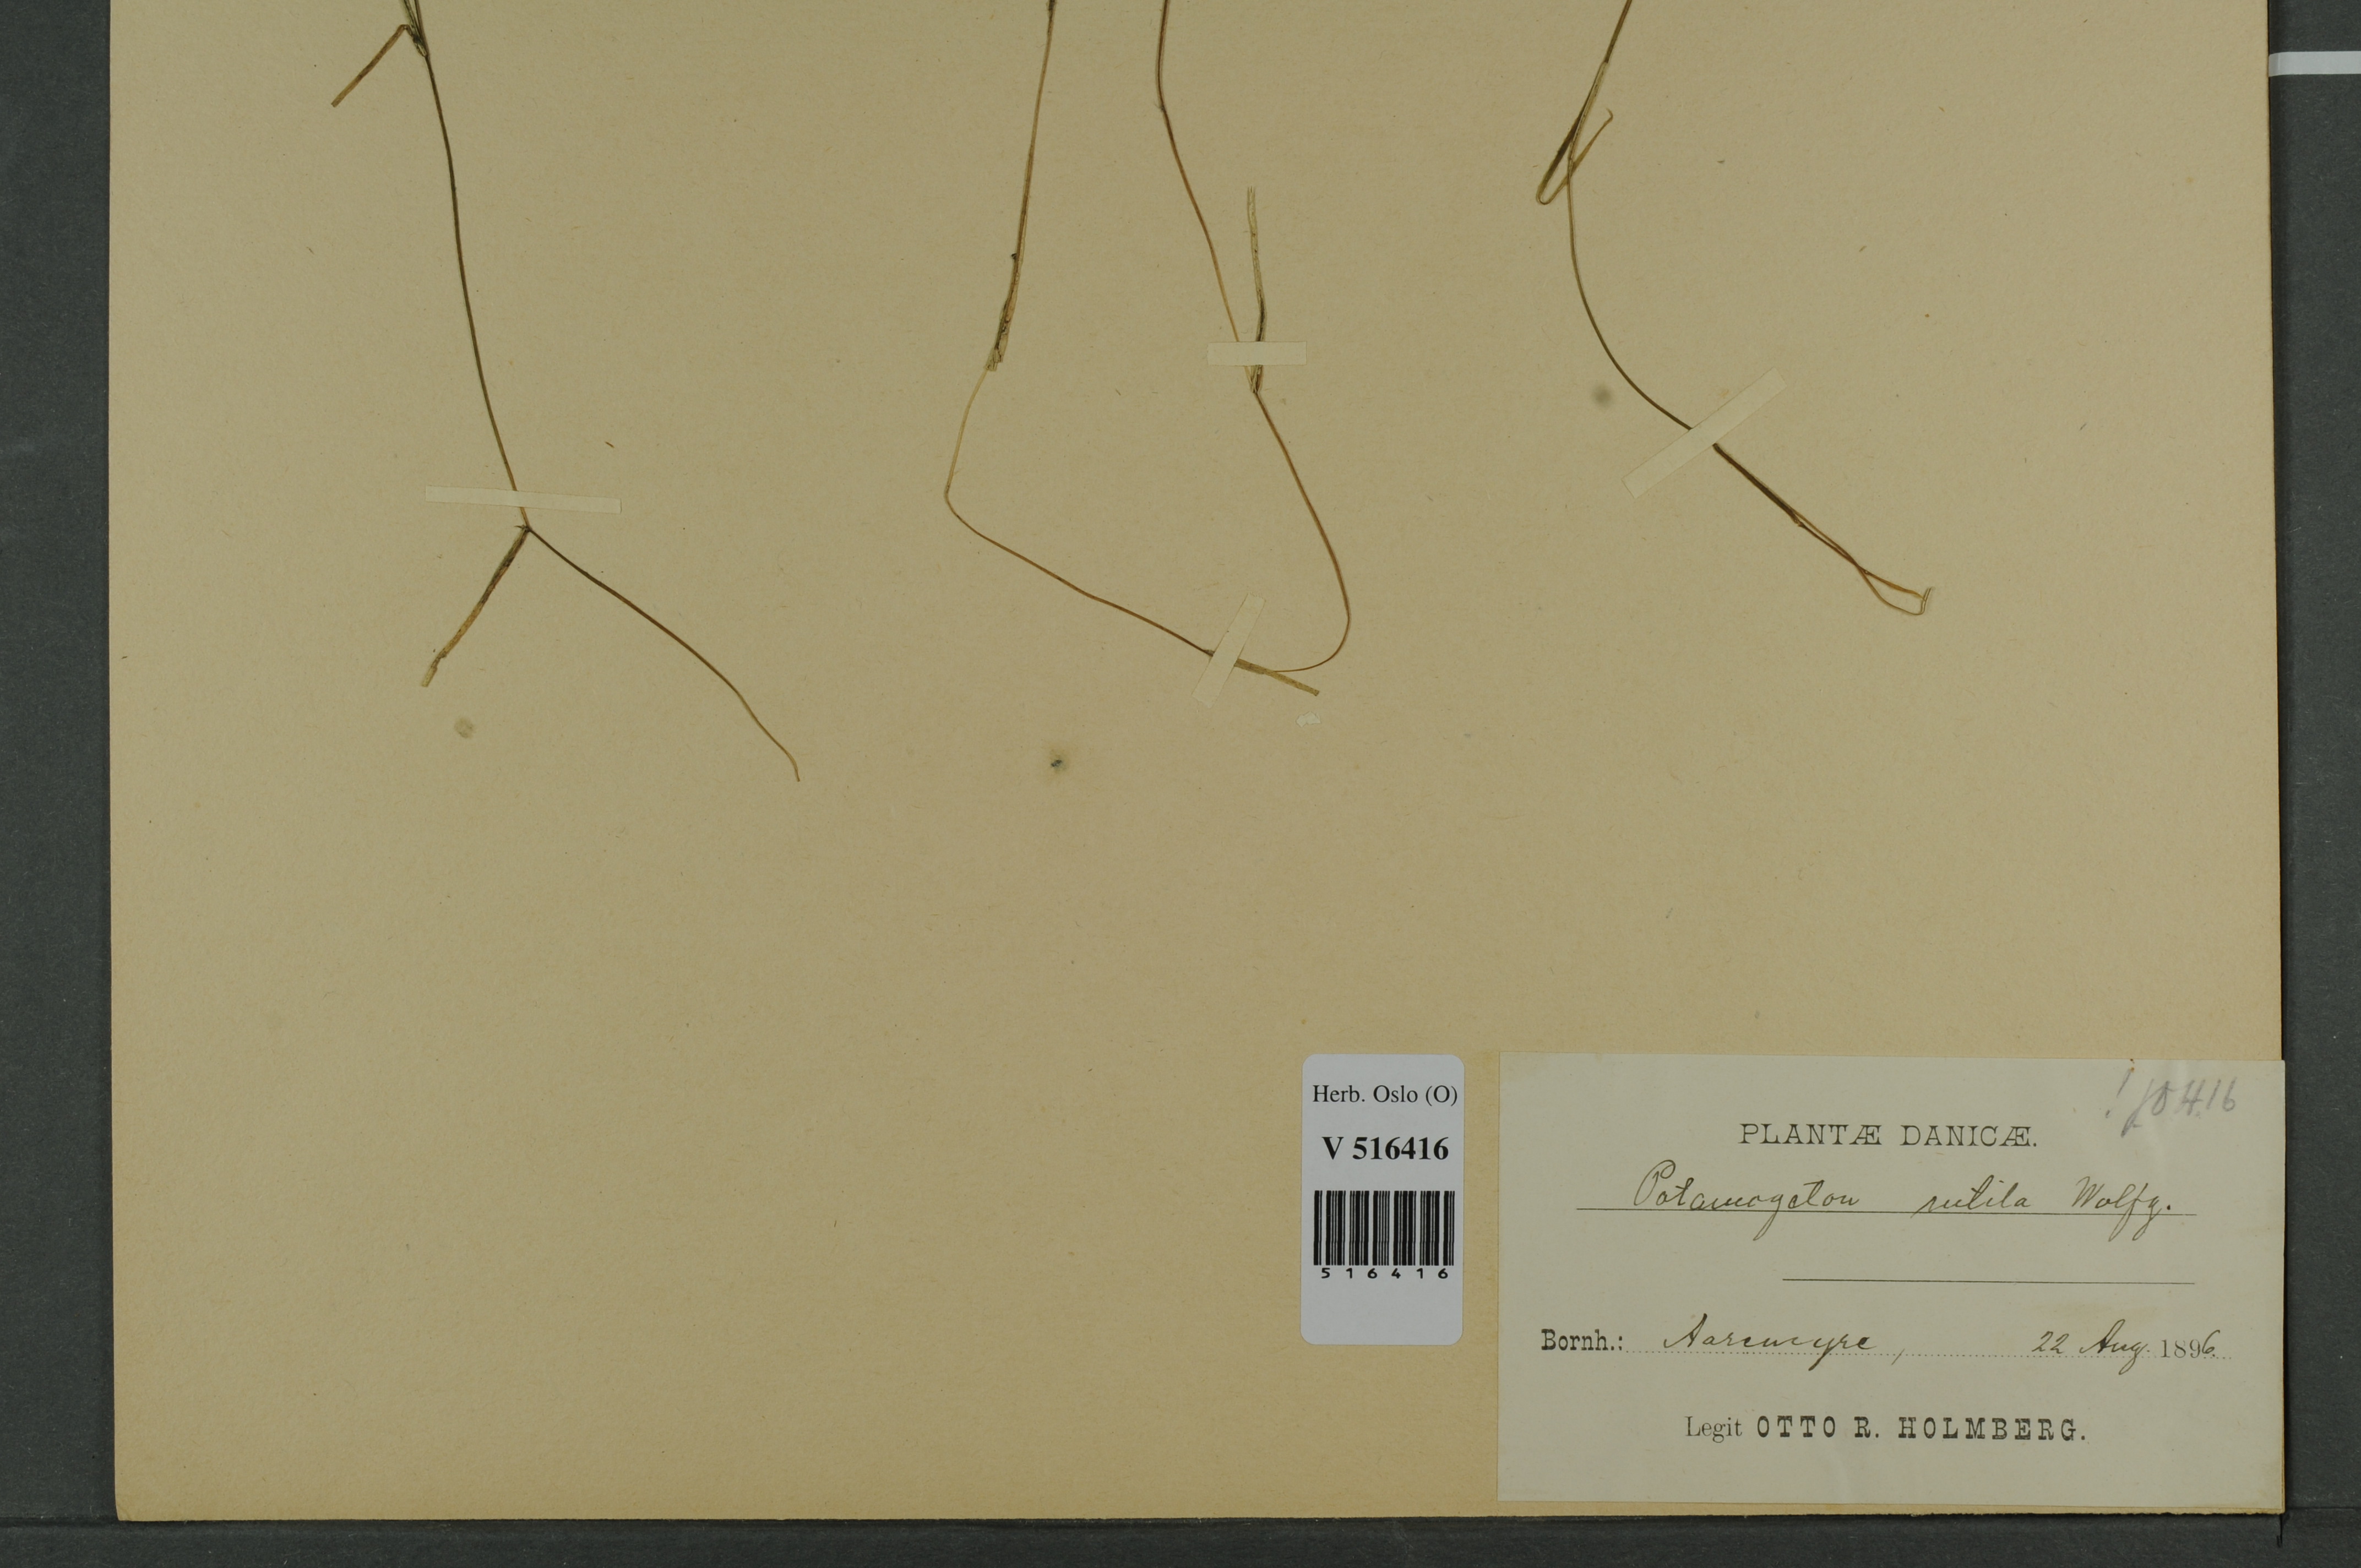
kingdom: Plantae
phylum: Tracheophyta
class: Liliopsida
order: Alismatales
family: Potamogetonaceae
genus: Potamogeton
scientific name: Potamogeton rutilus
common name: Shetland pondweed
